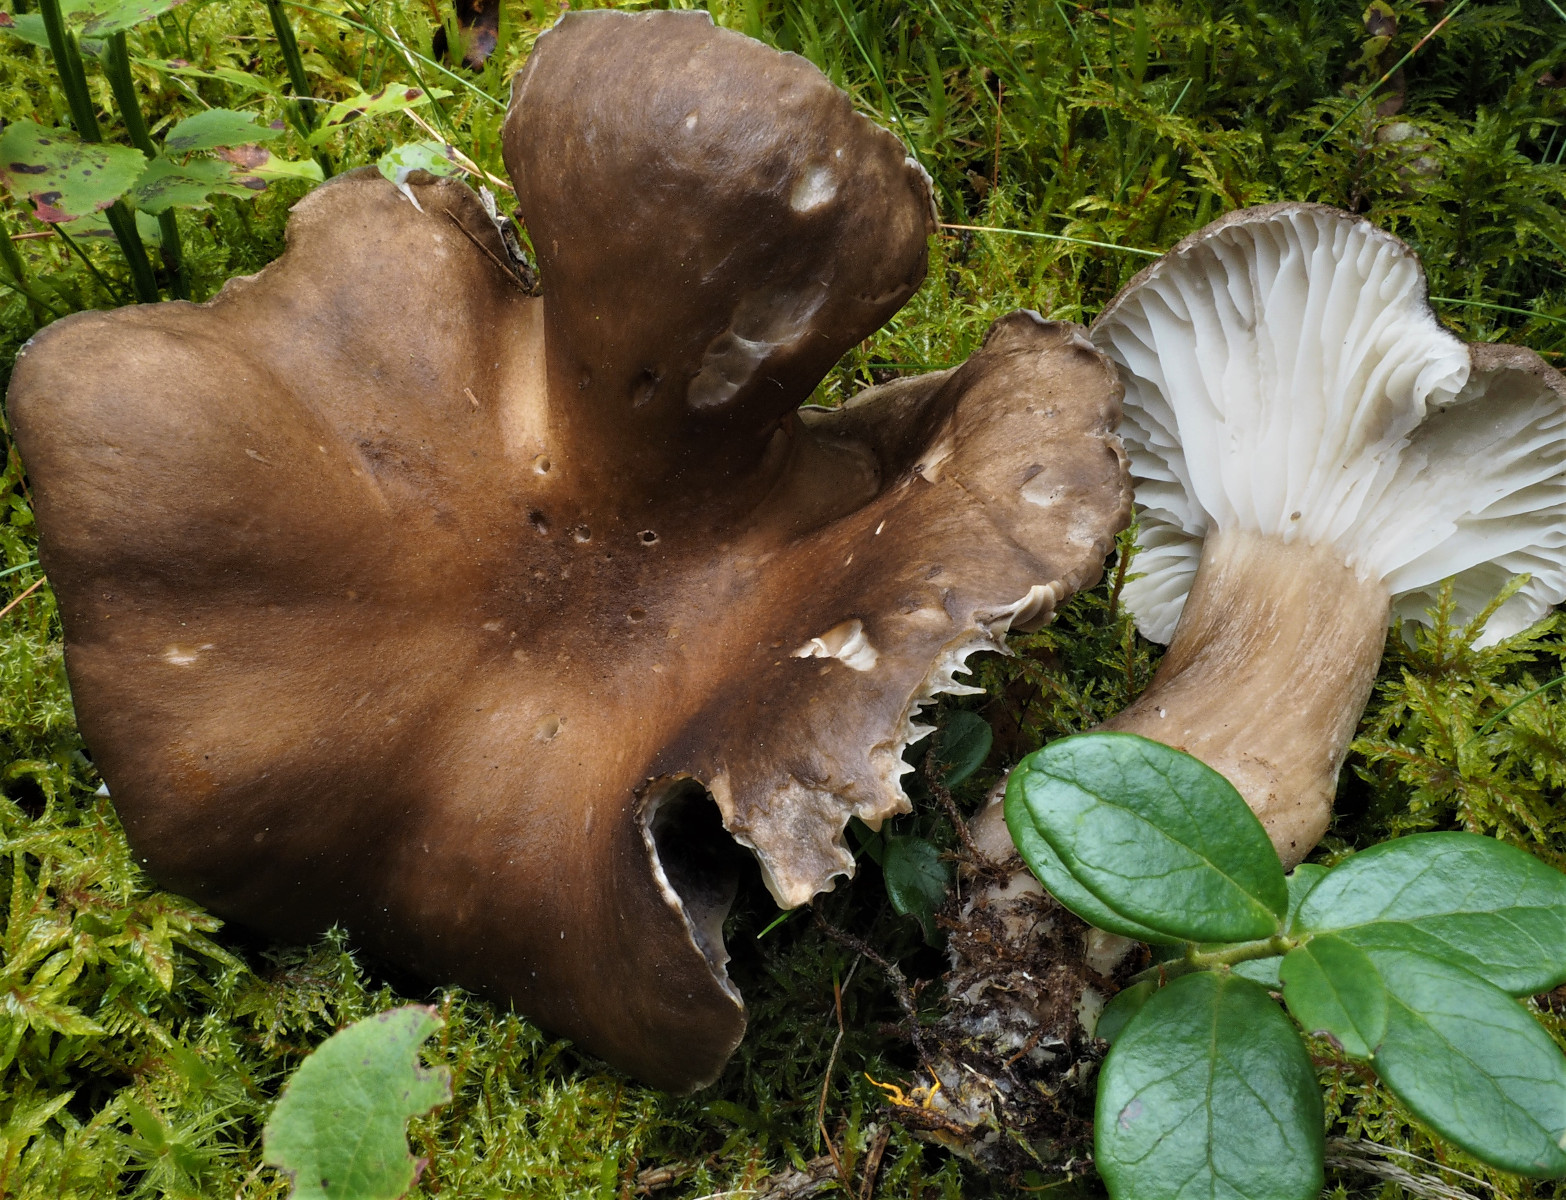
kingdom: Fungi
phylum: Basidiomycota
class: Agaricomycetes
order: Agaricales
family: Hygrophoraceae
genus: Hygrophorus
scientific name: Hygrophorus camarophyllus
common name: sodbrun sneglehat
